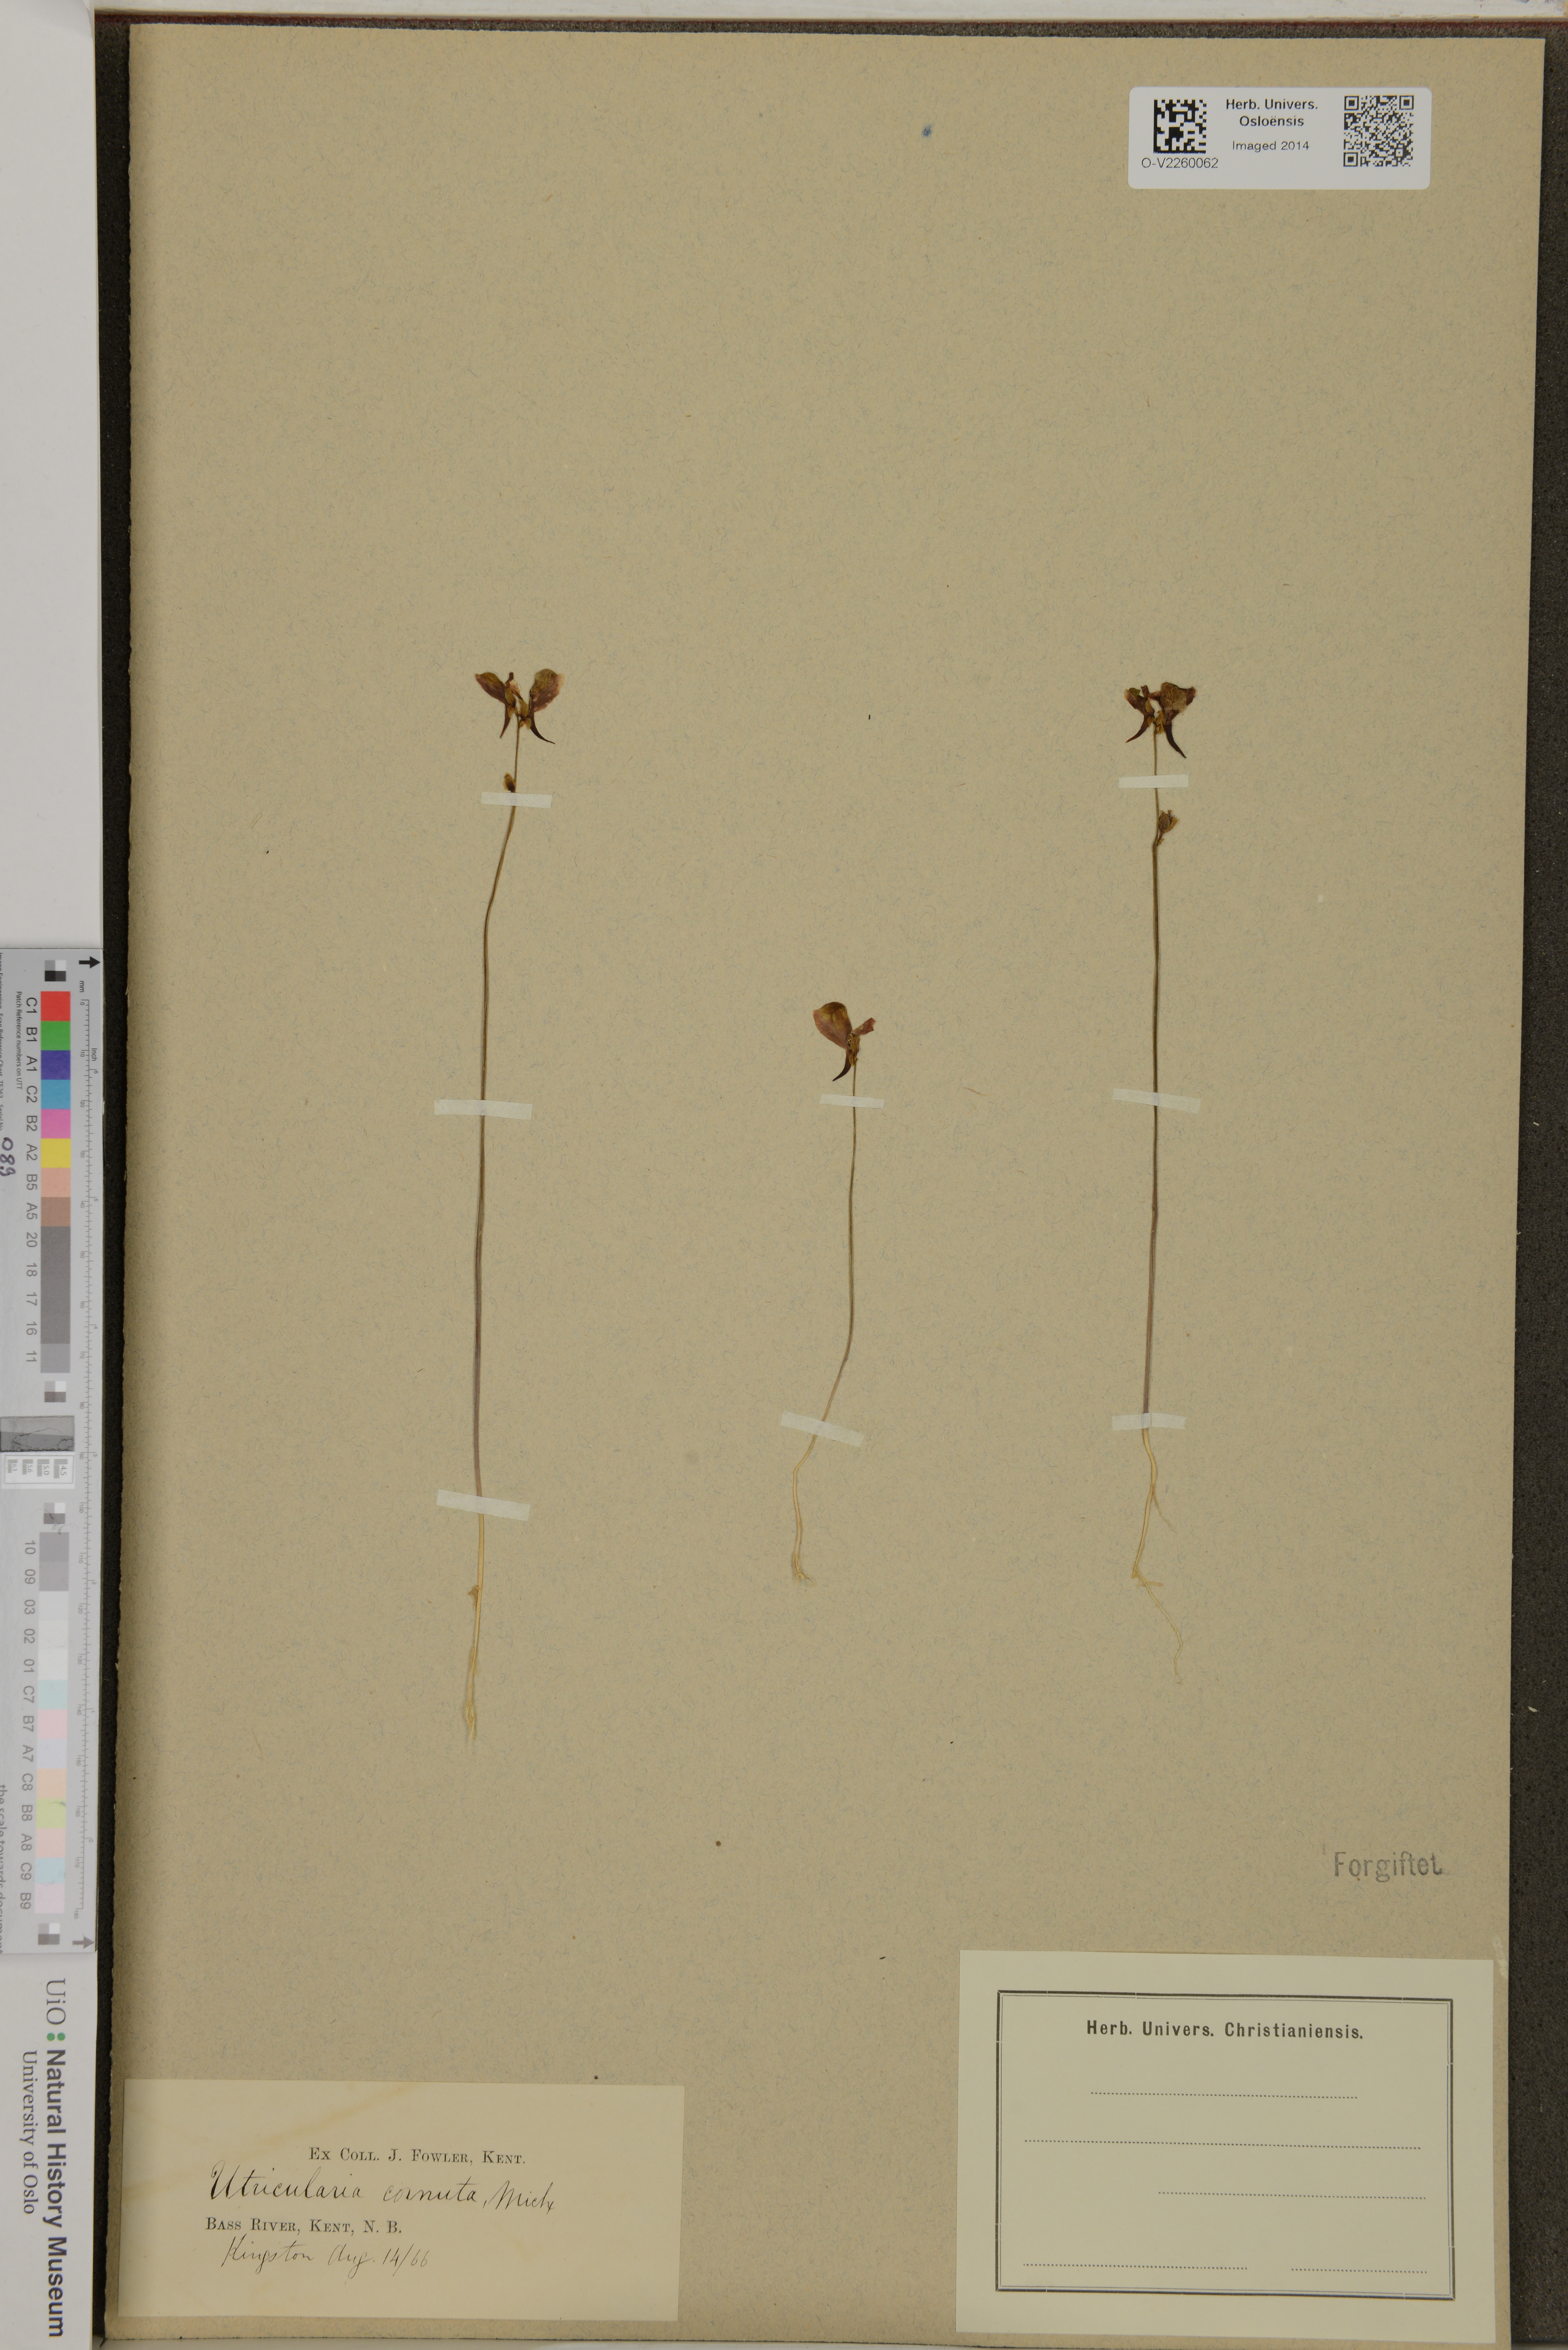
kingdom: Plantae
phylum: Tracheophyta
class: Magnoliopsida
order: Lamiales
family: Lentibulariaceae
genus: Utricularia
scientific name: Utricularia cornuta
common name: Horned bladderwort
